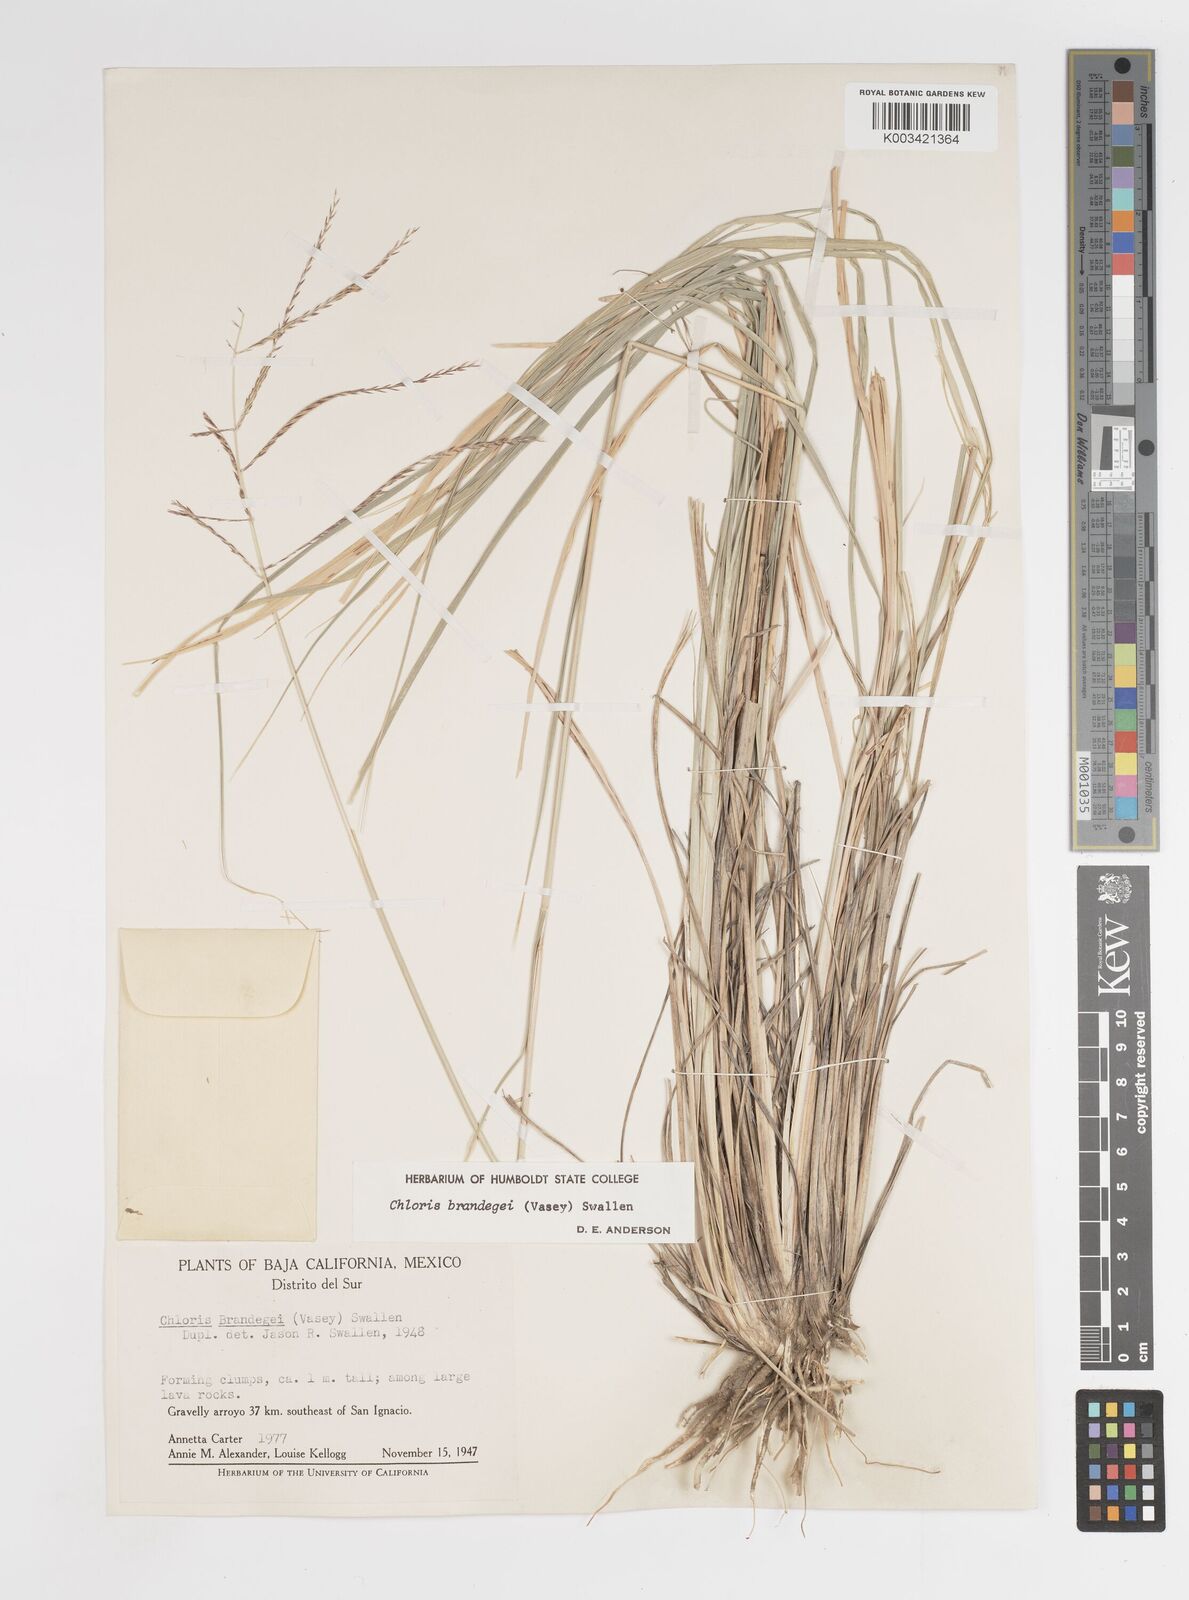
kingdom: Plantae
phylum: Tracheophyta
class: Liliopsida
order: Poales
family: Poaceae
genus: Tetrapogon
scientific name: Tetrapogon brandegeei
